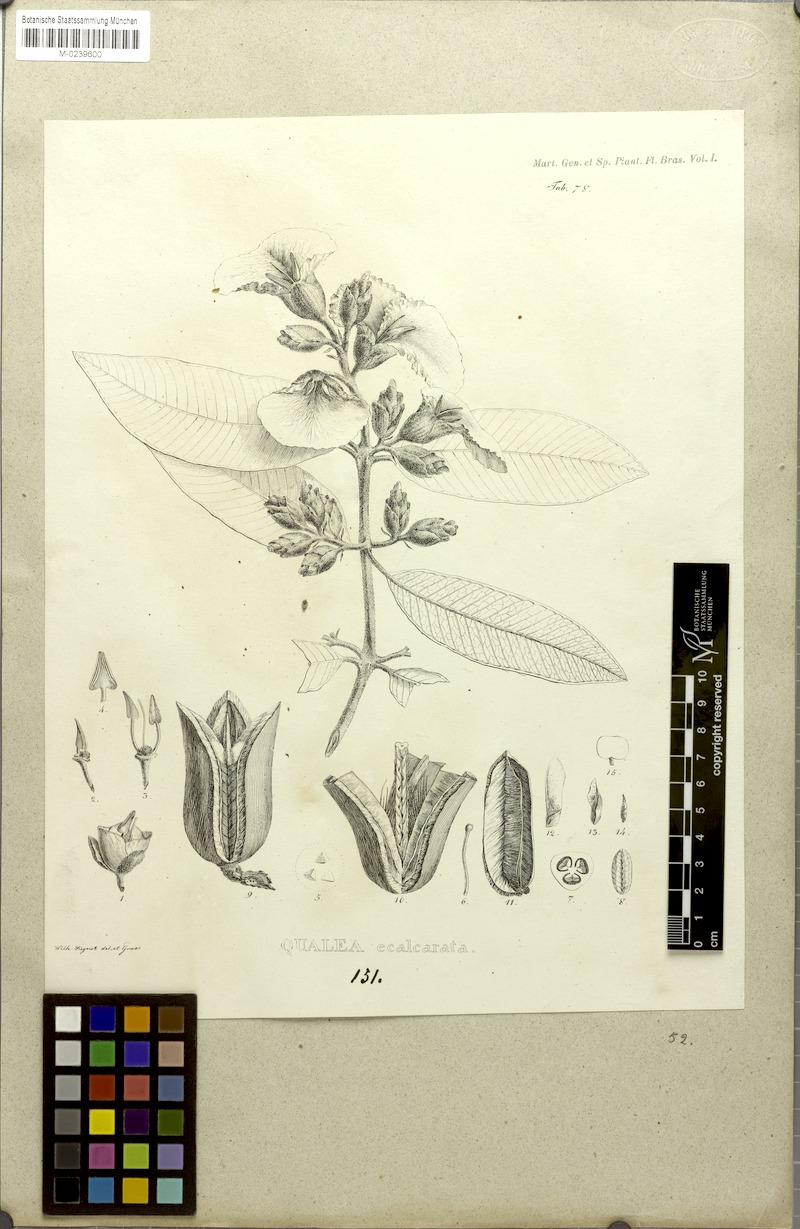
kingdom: Plantae
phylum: Tracheophyta
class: Magnoliopsida
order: Myrtales
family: Vochysiaceae
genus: Qualea
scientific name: Qualea grandiflora
